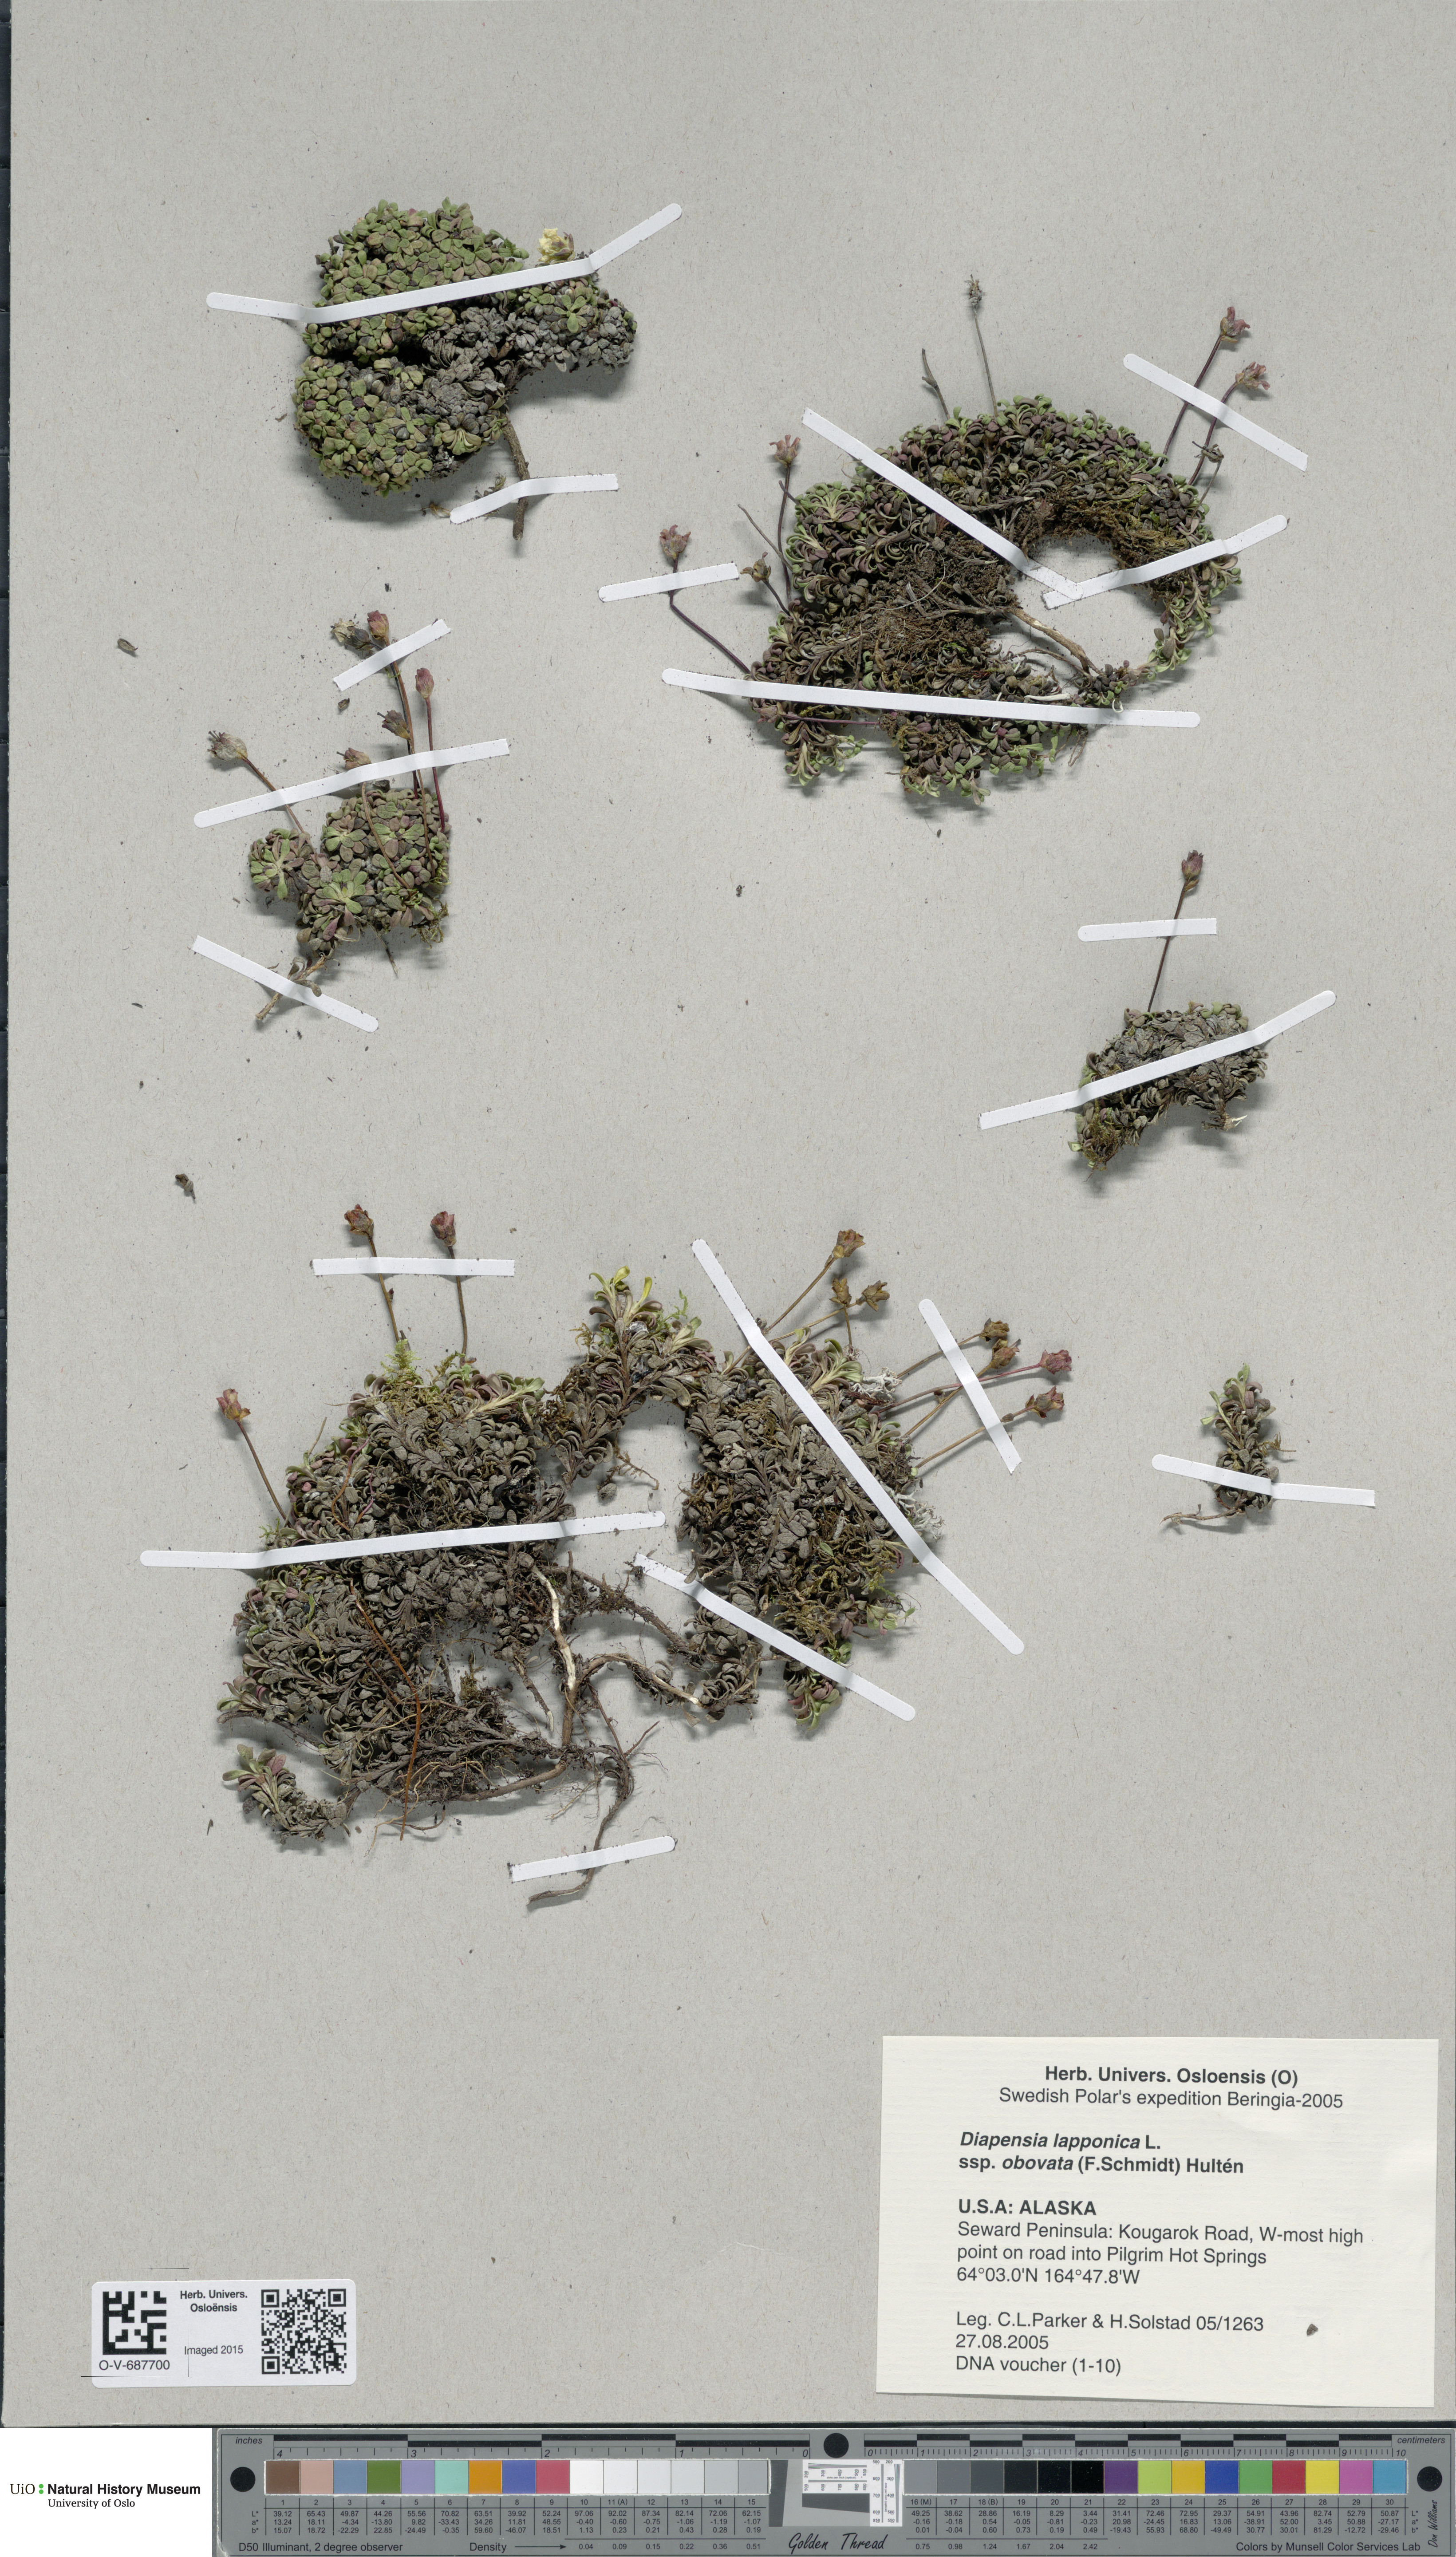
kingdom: Plantae
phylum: Tracheophyta
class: Magnoliopsida
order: Ericales
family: Diapensiaceae
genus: Diapensia
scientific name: Diapensia obovata
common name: Alaska diapensia
